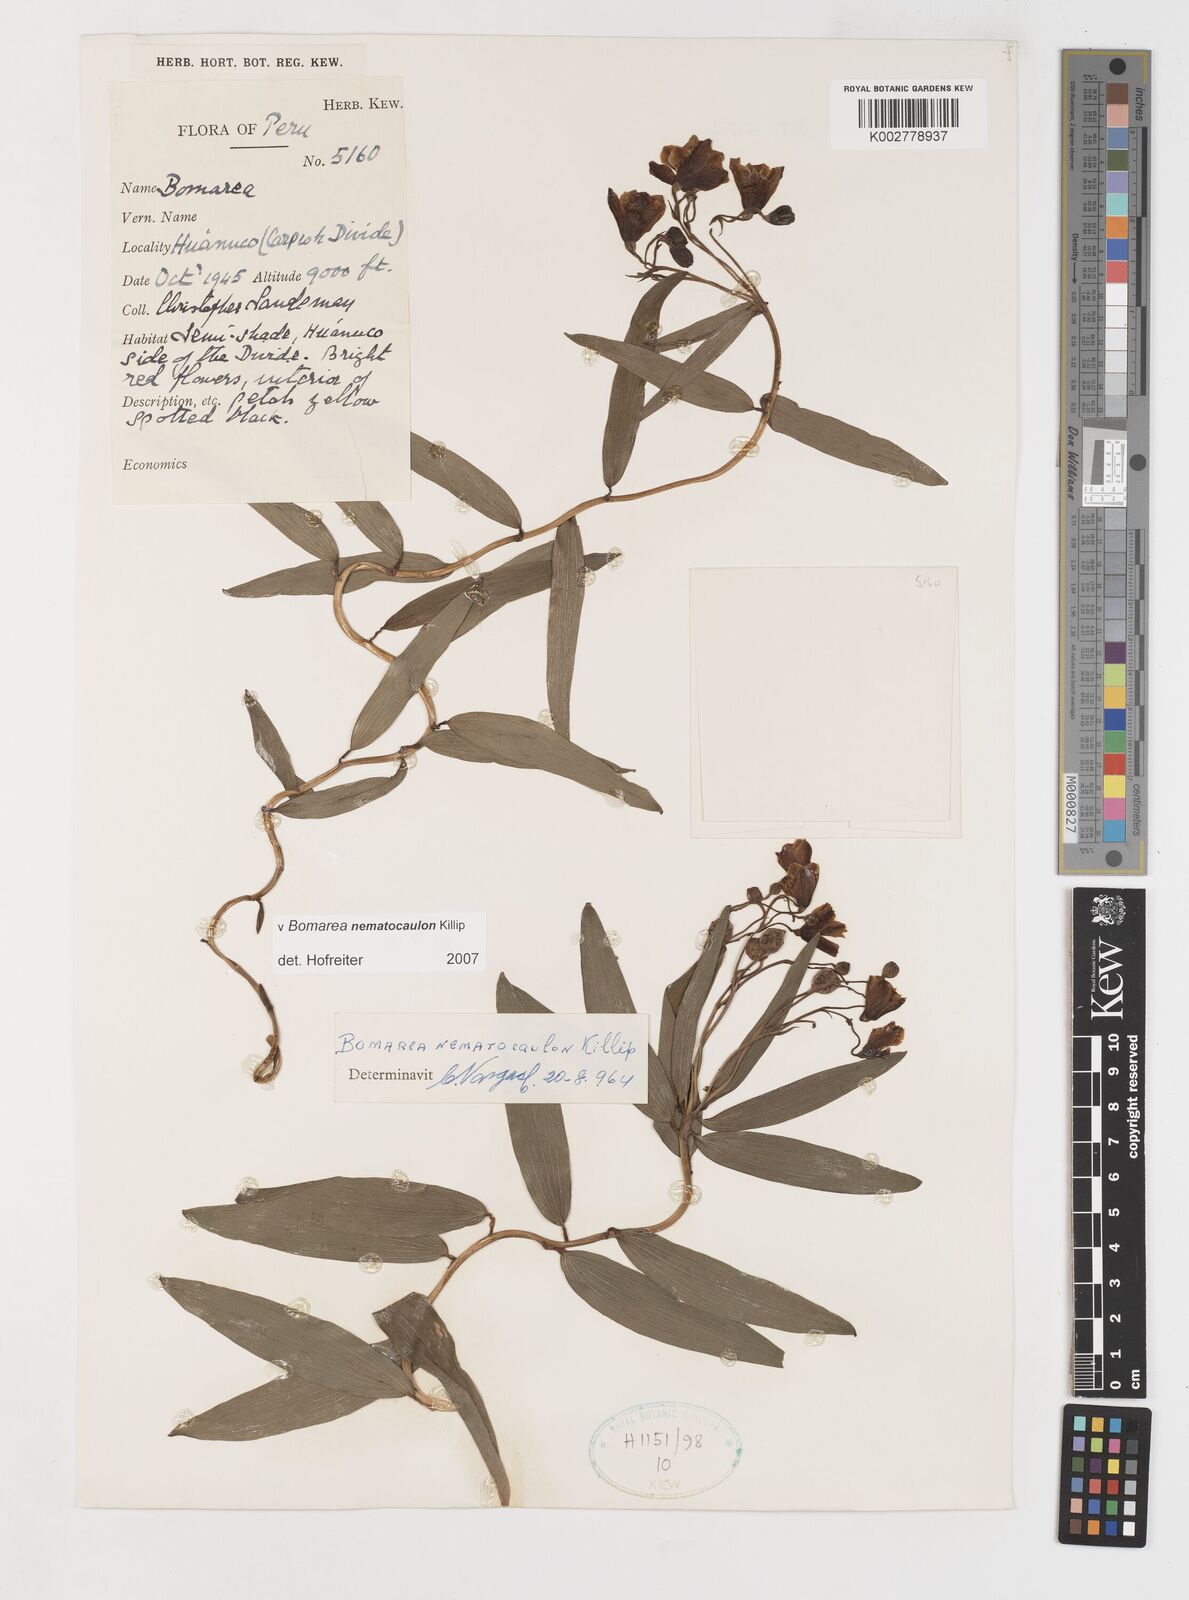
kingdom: Plantae
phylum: Tracheophyta
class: Liliopsida
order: Liliales
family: Alstroemeriaceae
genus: Bomarea
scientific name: Bomarea nematocaulon
